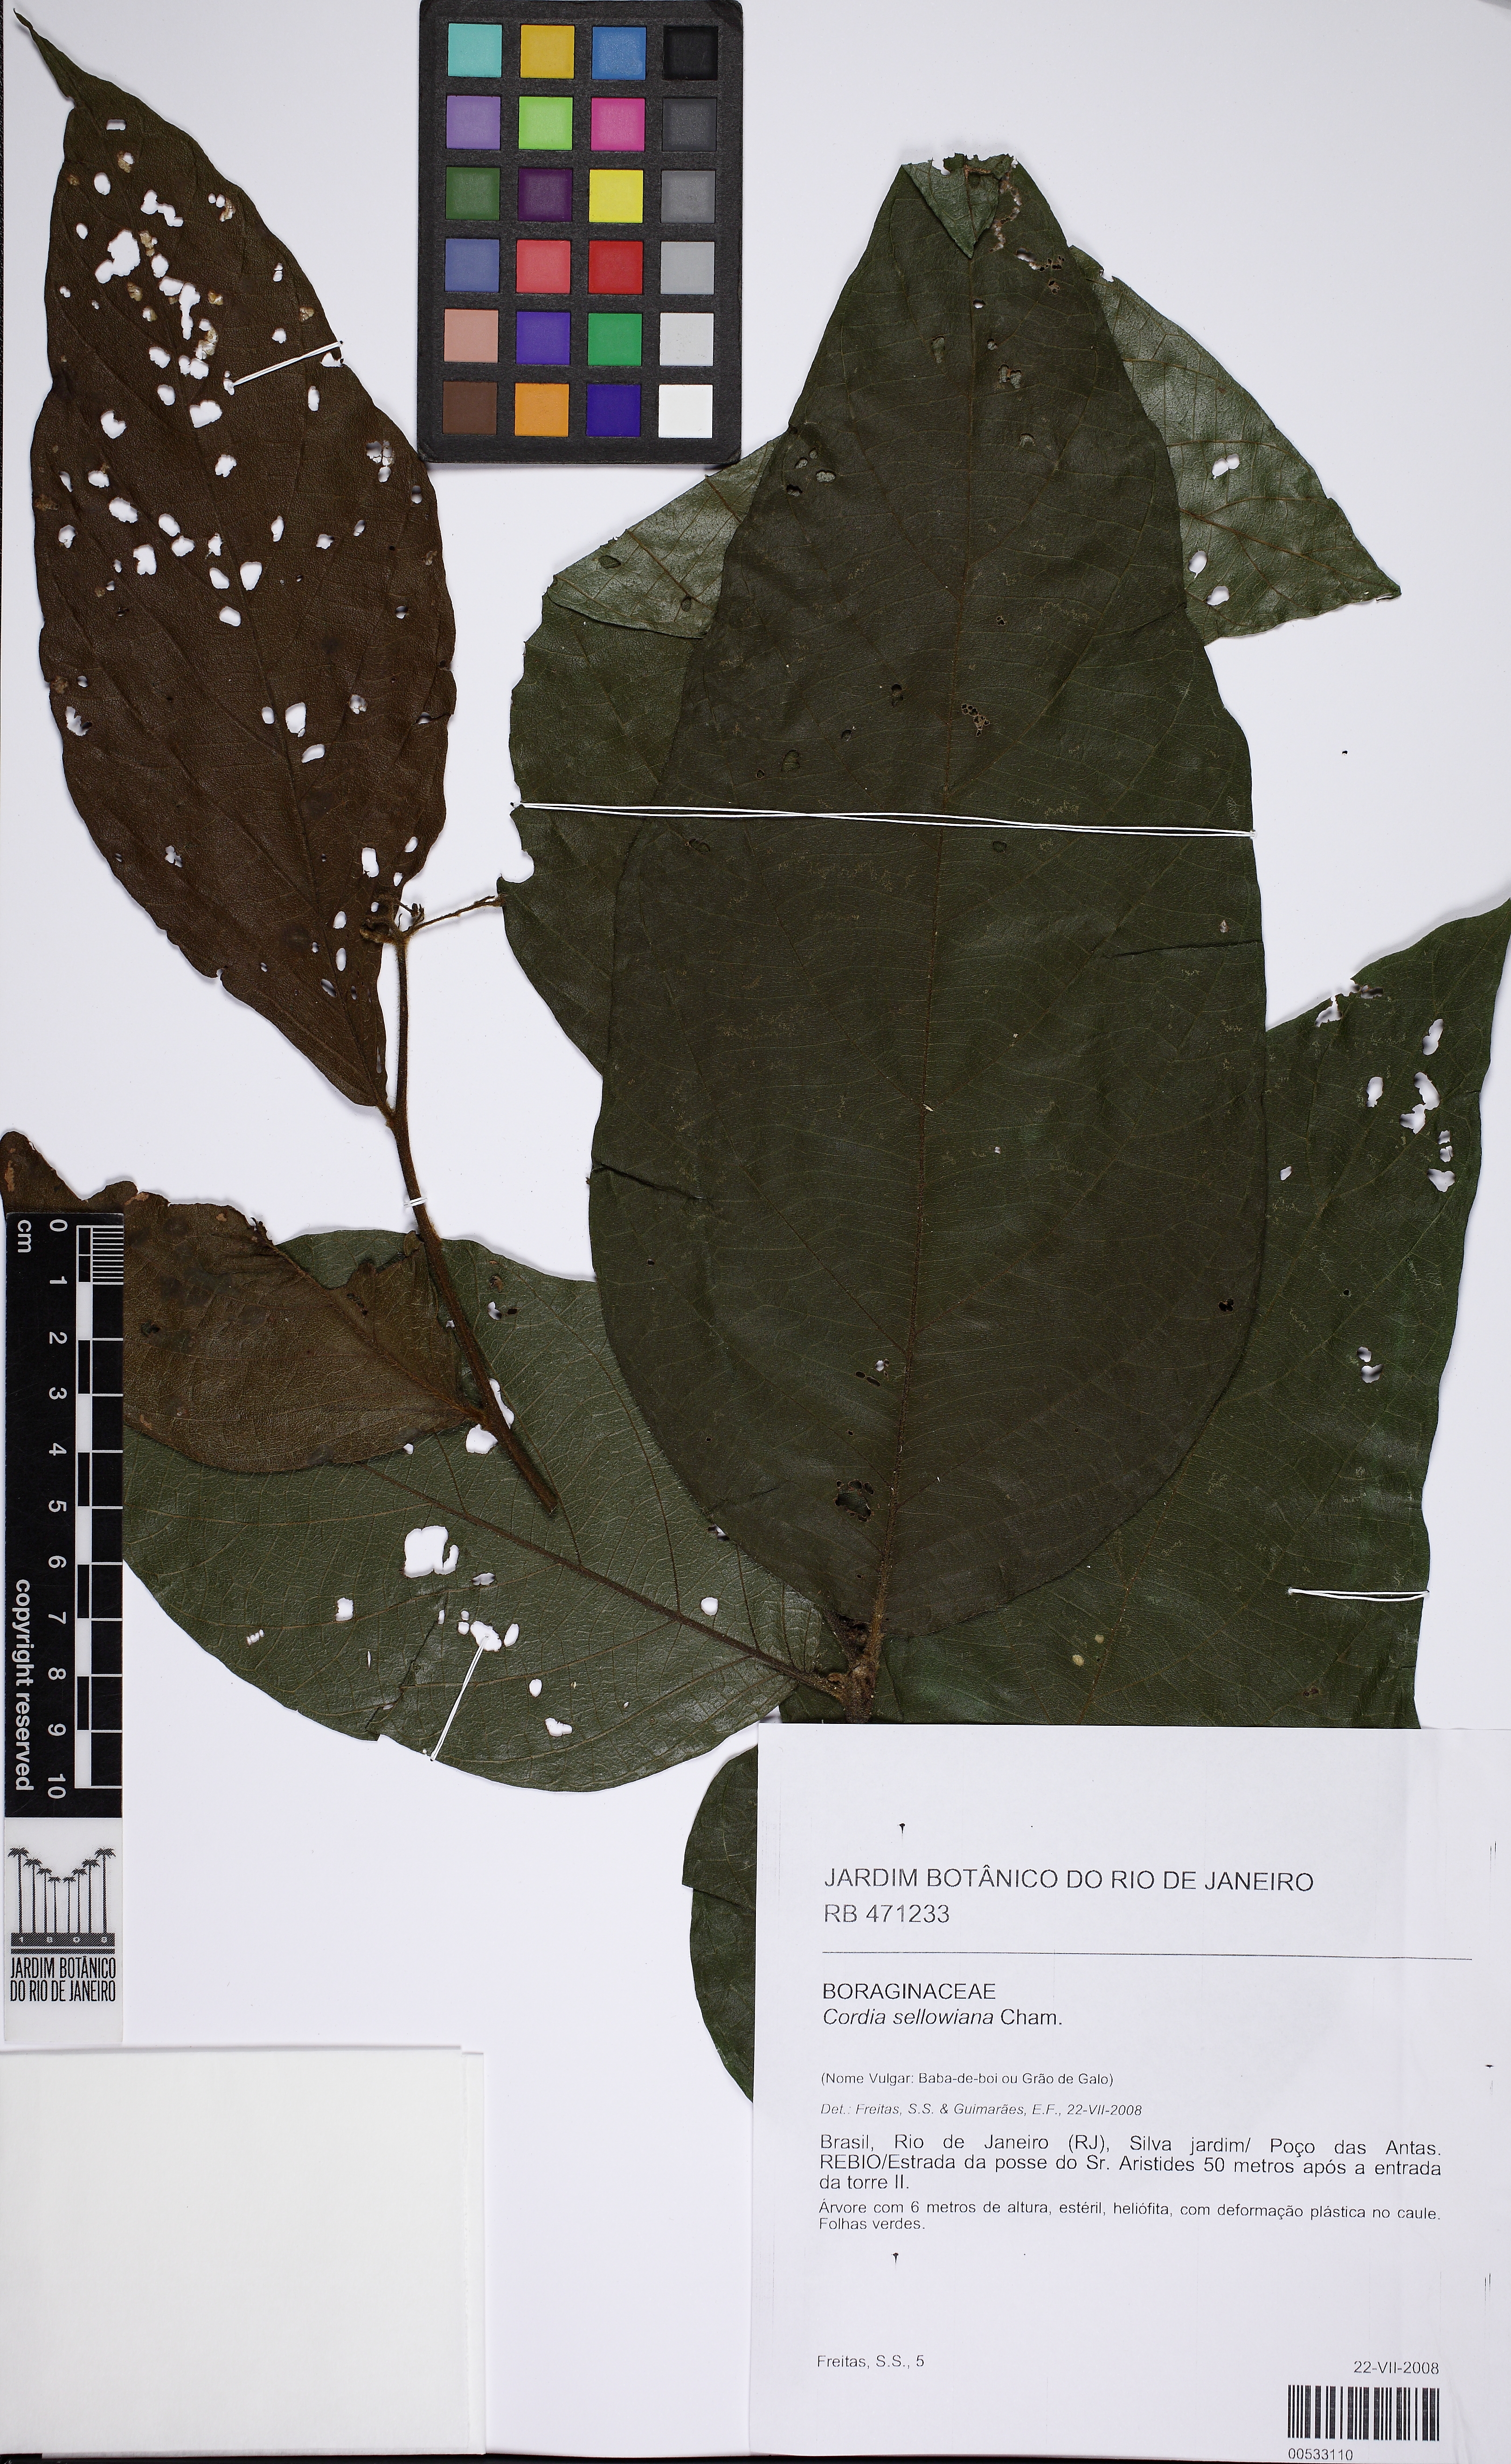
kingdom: Plantae
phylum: Tracheophyta
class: Magnoliopsida
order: Boraginales
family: Cordiaceae
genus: Cordia
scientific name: Cordia sellowiana
